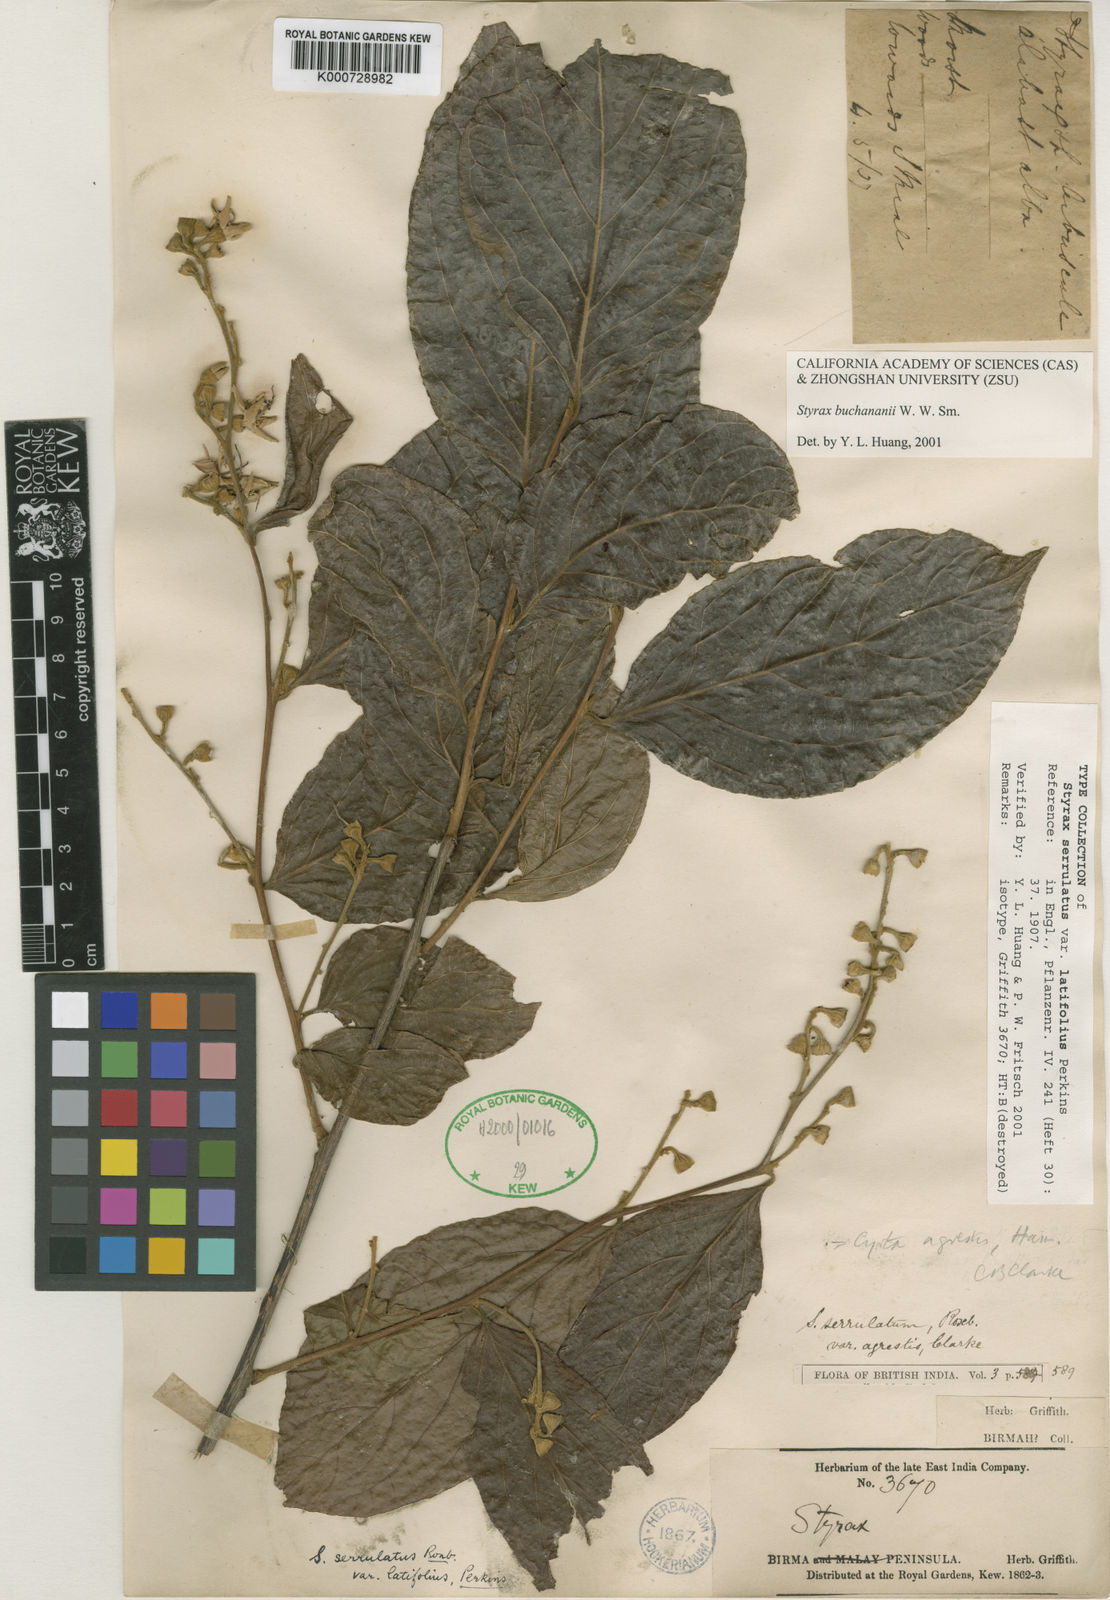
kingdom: Plantae
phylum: Tracheophyta
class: Magnoliopsida
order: Ericales
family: Styracaceae
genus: Styrax
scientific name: Styrax serrulatus
